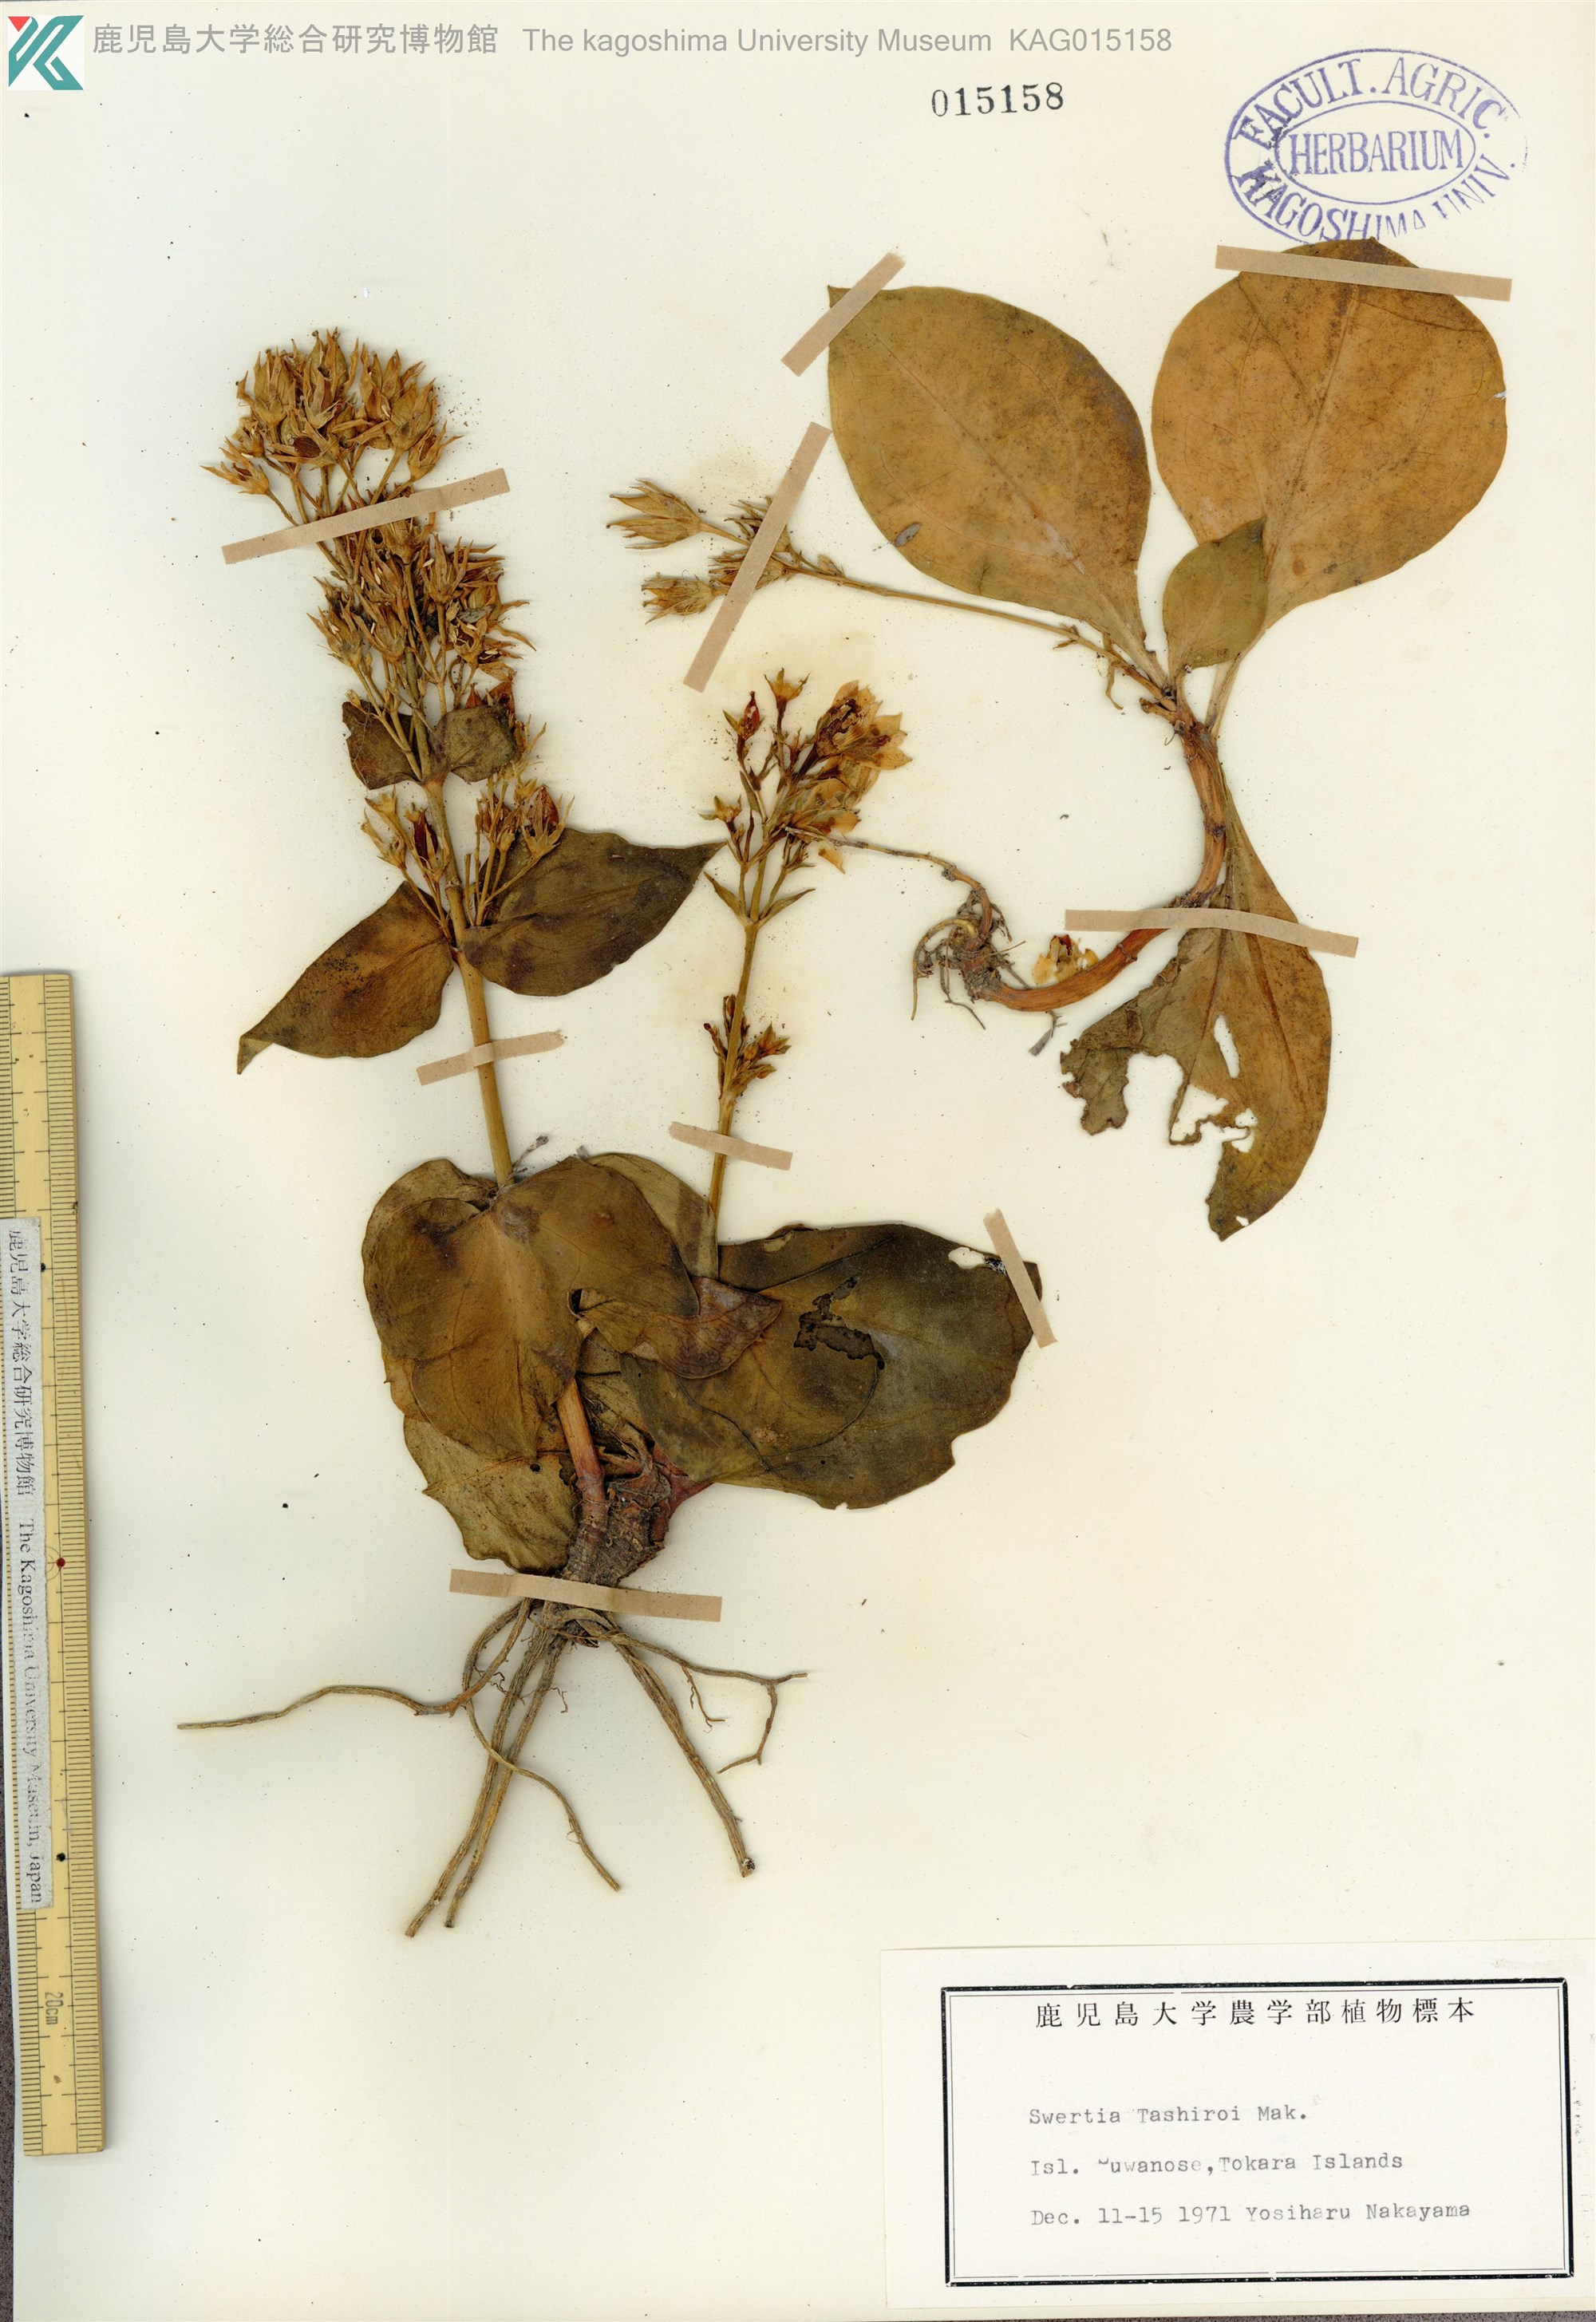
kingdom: Plantae
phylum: Tracheophyta
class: Magnoliopsida
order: Gentianales
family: Gentianaceae
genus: Swertia
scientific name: Swertia tashiroi
